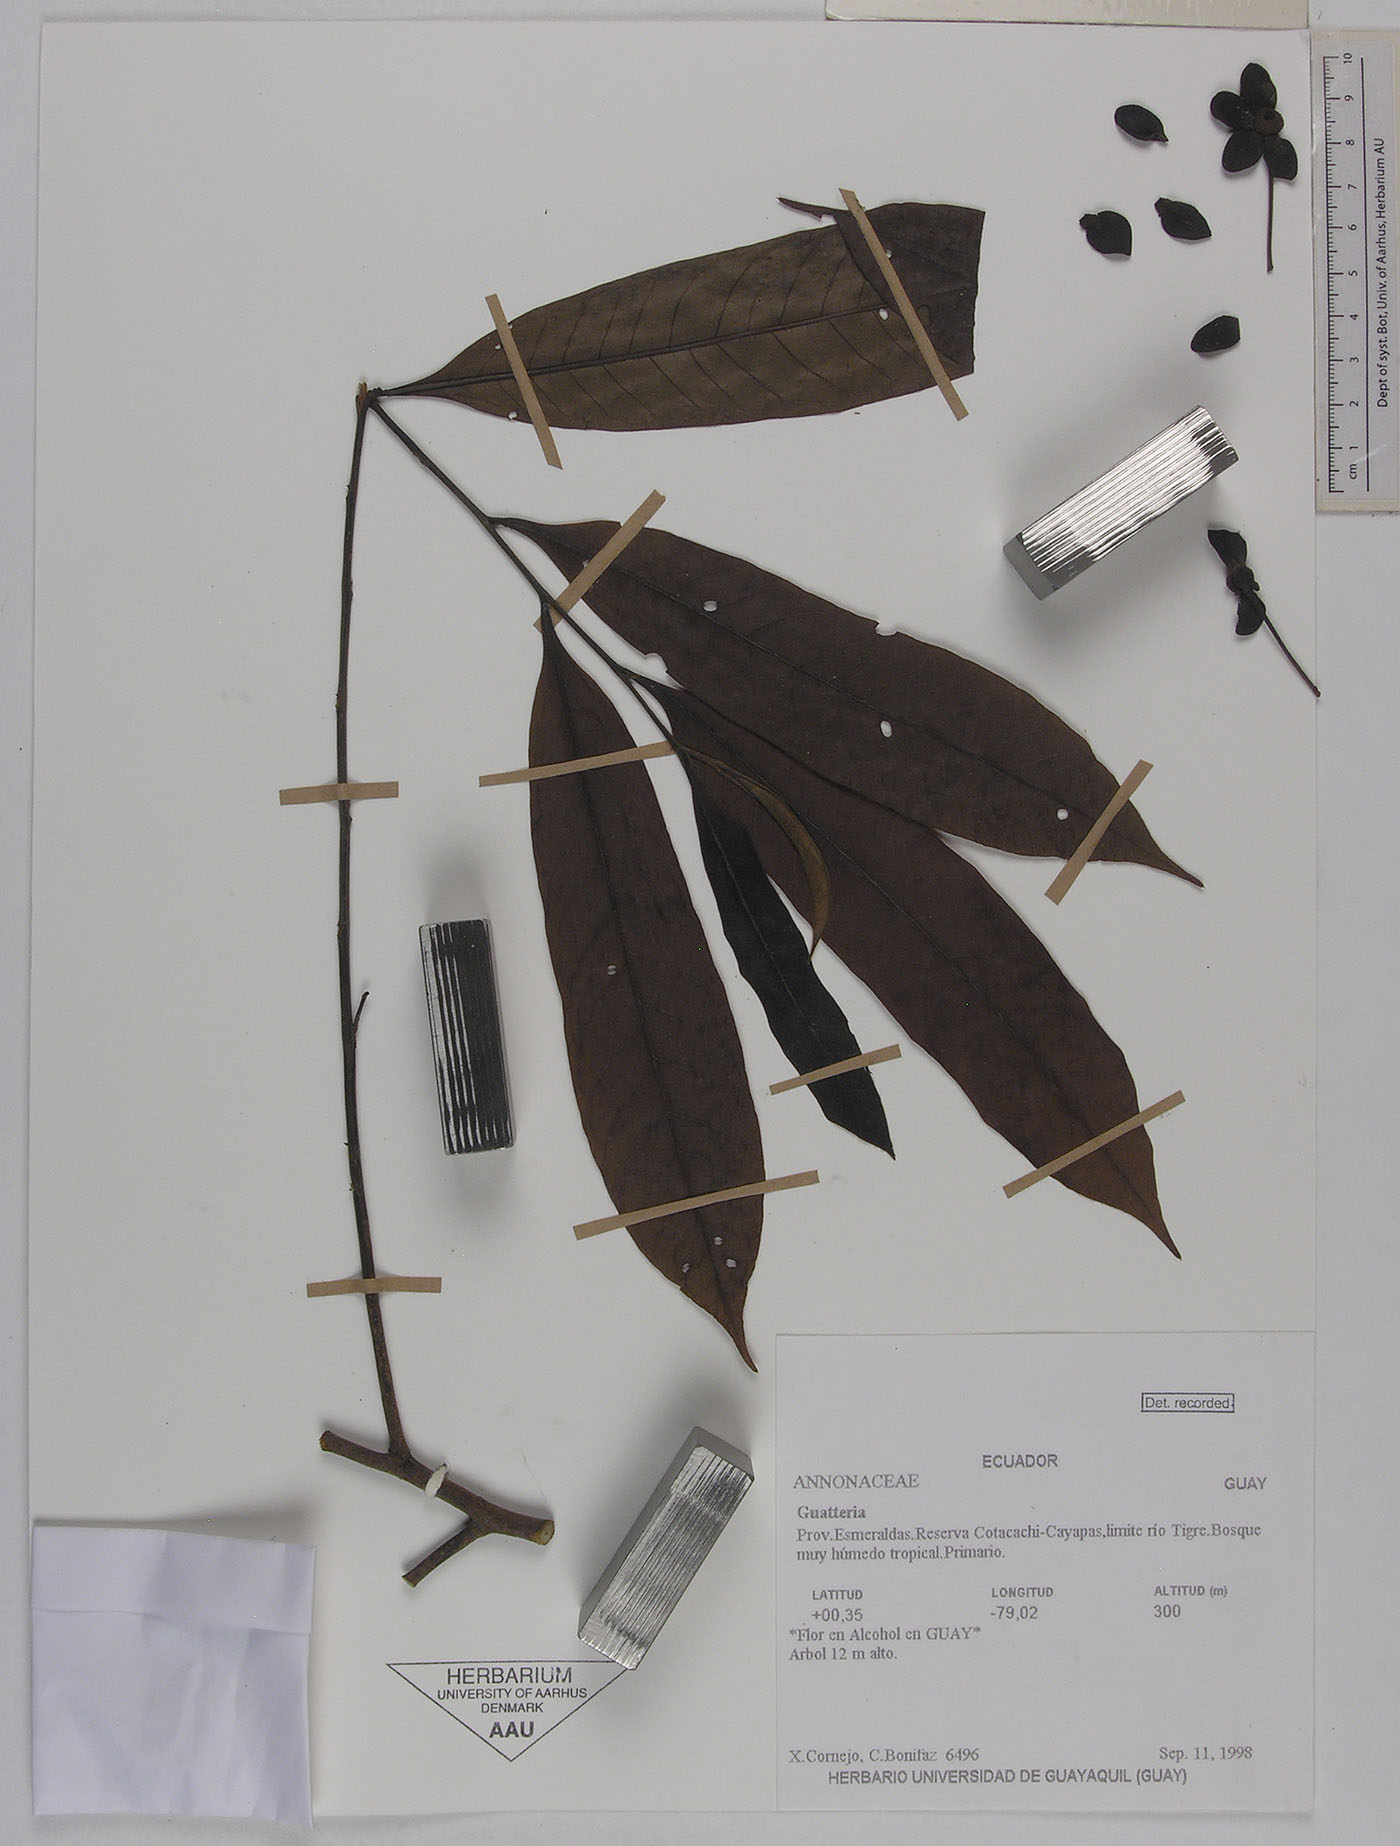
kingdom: Plantae
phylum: Tracheophyta
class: Magnoliopsida
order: Magnoliales
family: Annonaceae
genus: Guatteria
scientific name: Guatteria pittieri
